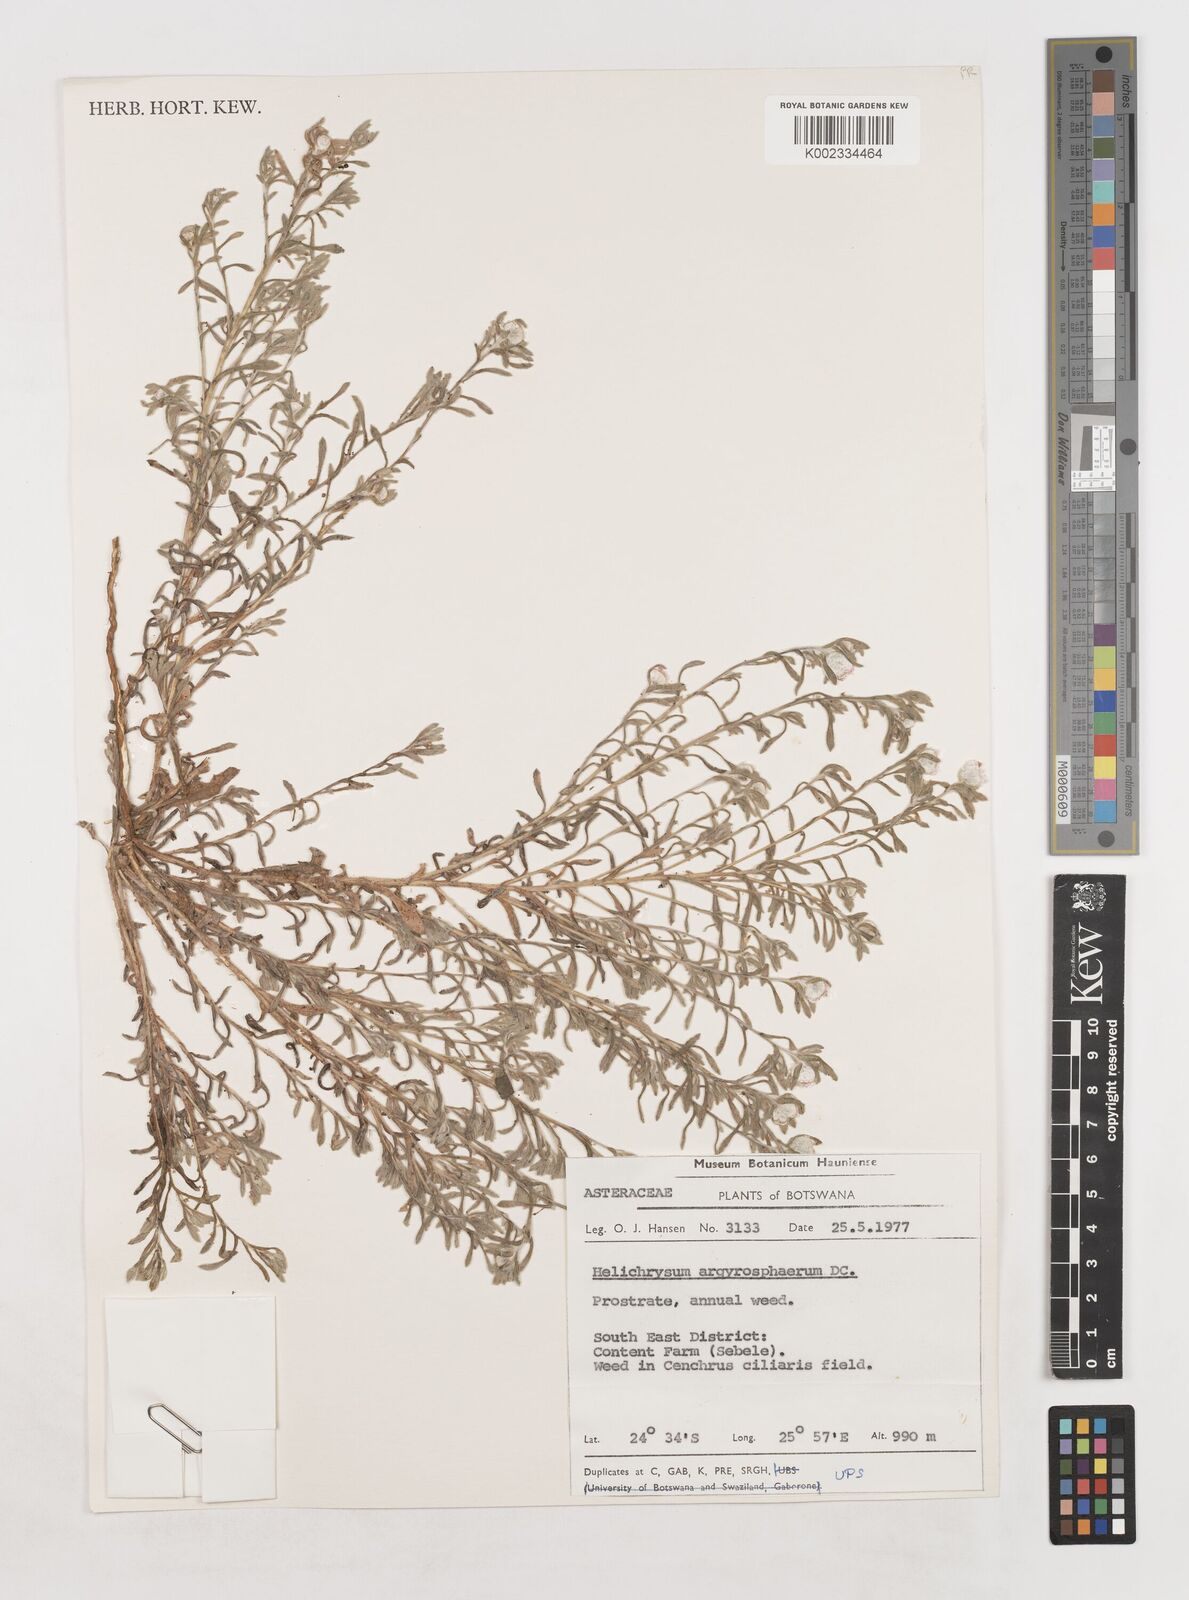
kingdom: Plantae
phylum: Tracheophyta
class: Magnoliopsida
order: Asterales
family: Asteraceae
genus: Helichrysum
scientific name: Helichrysum argyrosphaerum
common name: Wild everlasting
